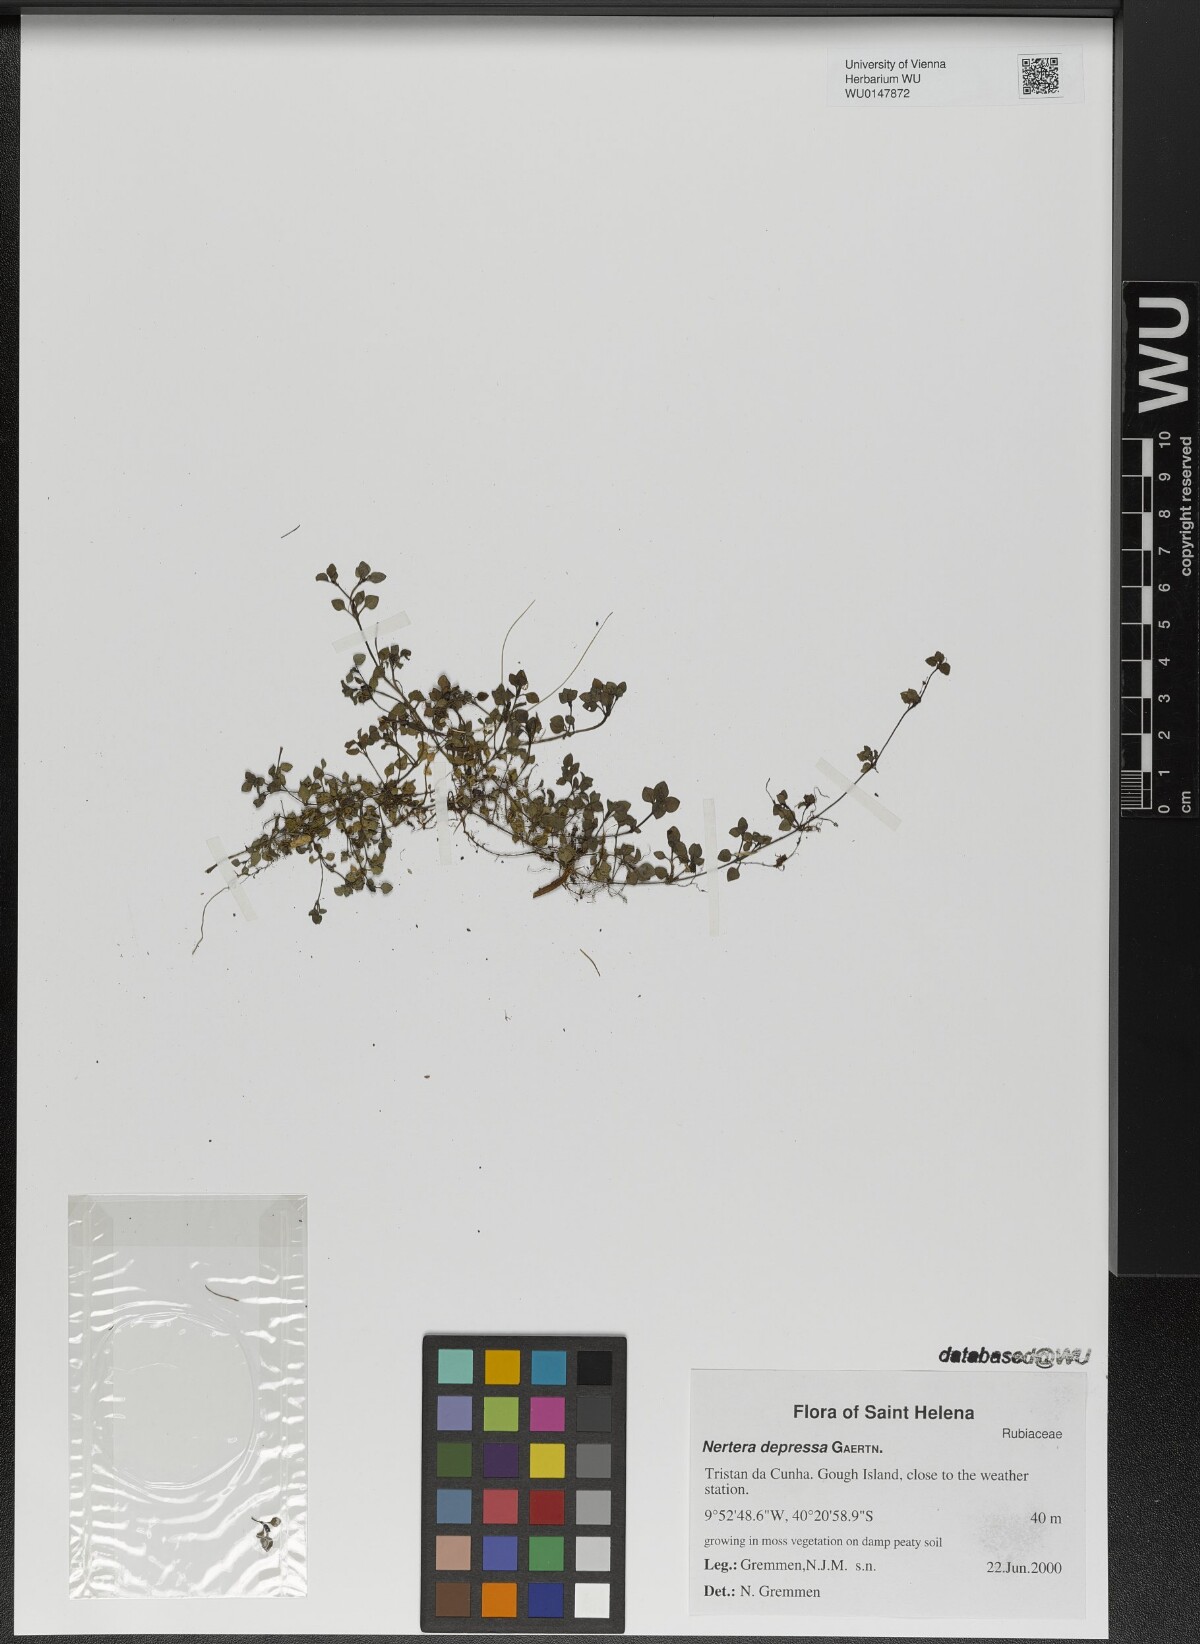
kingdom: Plantae
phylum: Tracheophyta
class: Magnoliopsida
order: Gentianales
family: Rubiaceae
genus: Nertera
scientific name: Nertera granadensis
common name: Beadplant
